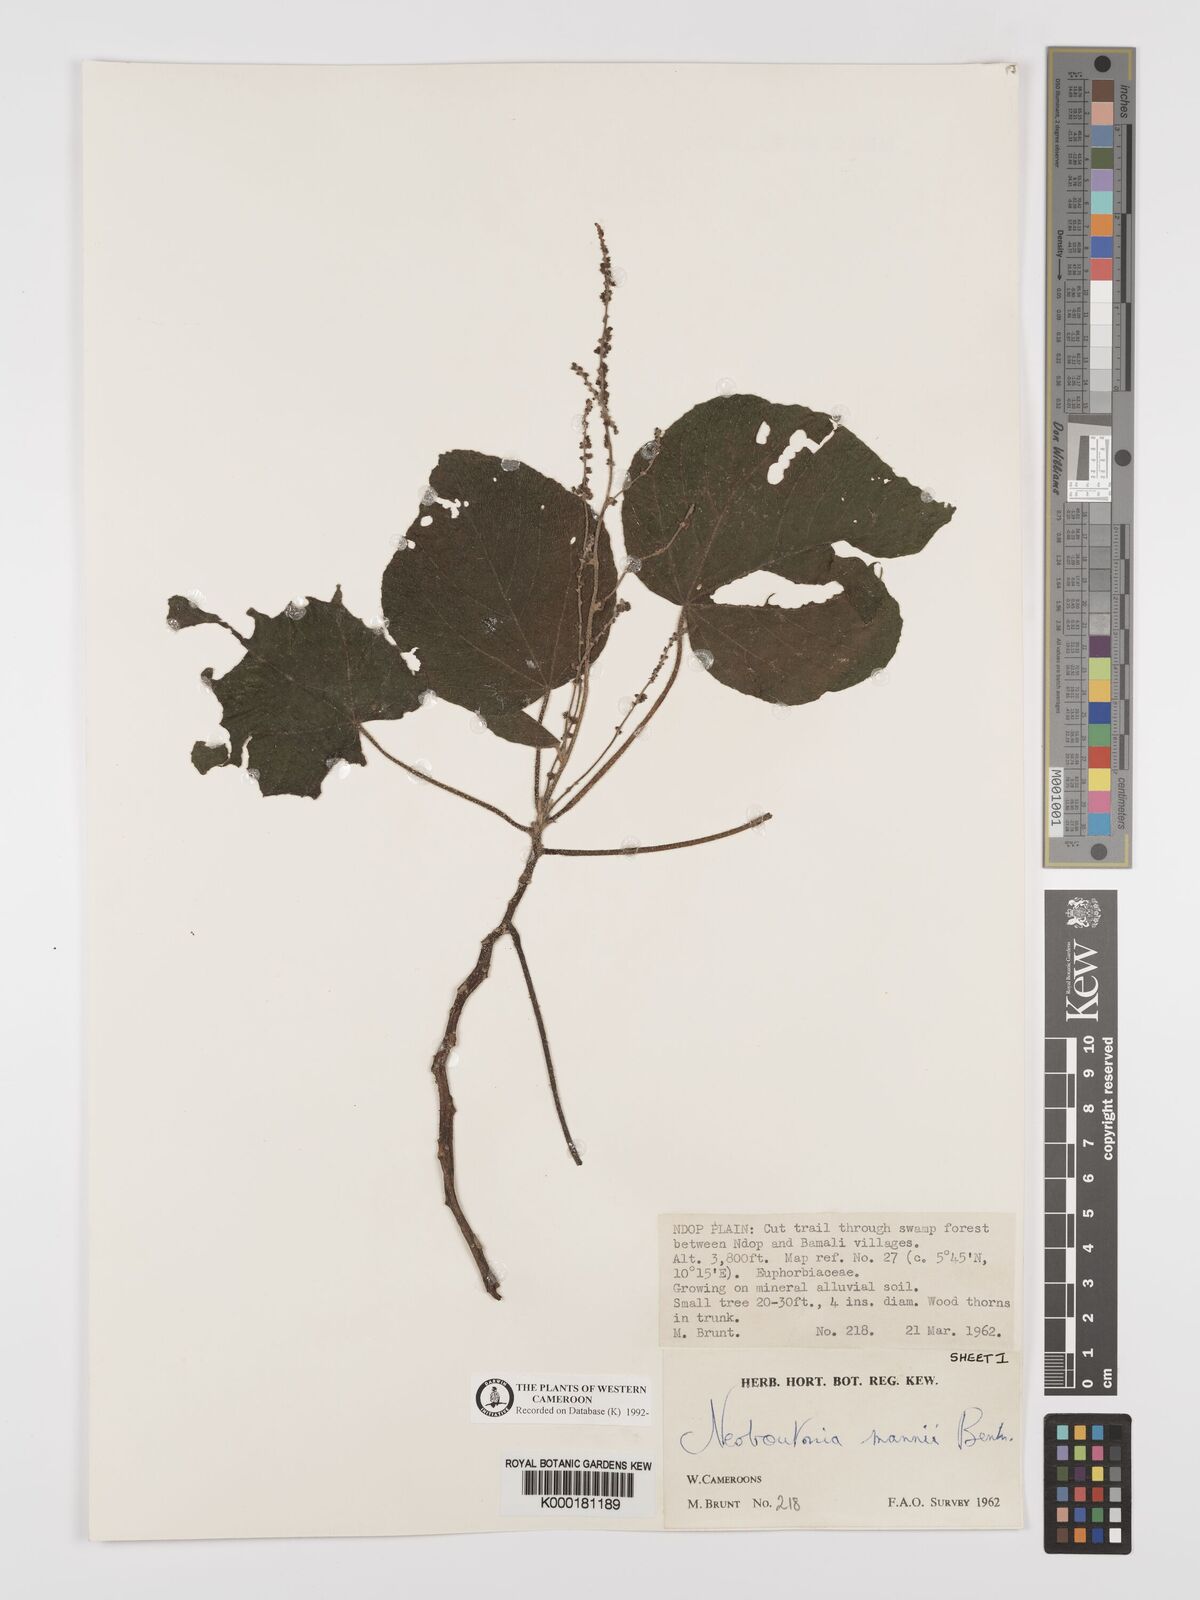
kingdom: Plantae
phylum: Tracheophyta
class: Magnoliopsida
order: Malpighiales
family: Euphorbiaceae
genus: Neoboutonia
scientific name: Neoboutonia mannii
